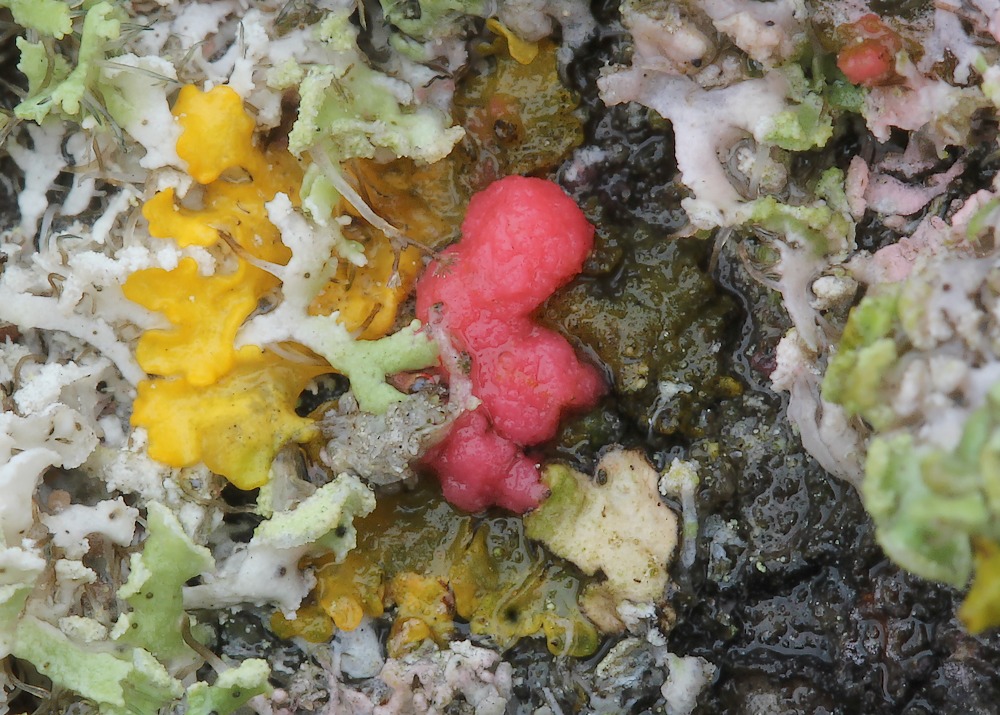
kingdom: Fungi
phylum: Ascomycota
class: Sordariomycetes
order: Hypocreales
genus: Illosporiopsis
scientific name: Illosporiopsis christiansenii
